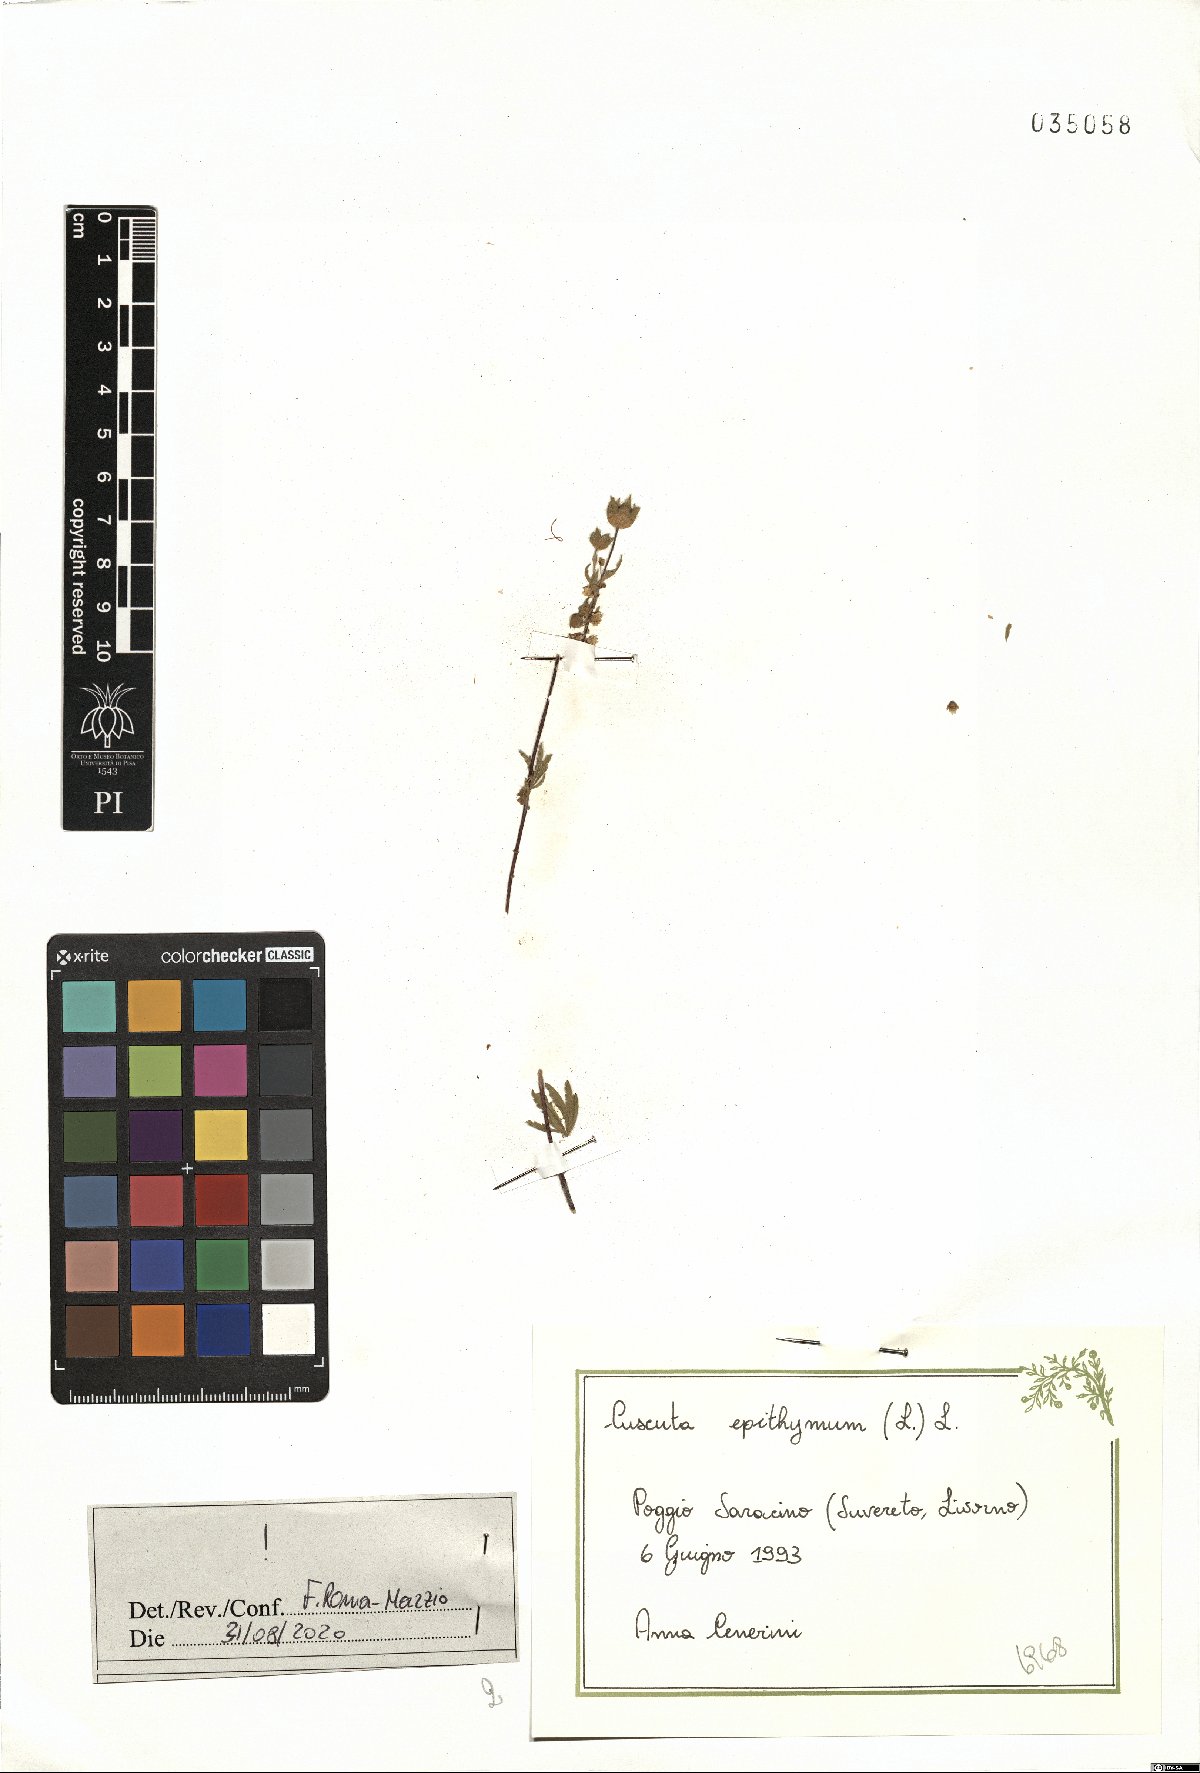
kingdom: Plantae
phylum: Tracheophyta
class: Magnoliopsida
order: Solanales
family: Convolvulaceae
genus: Cuscuta
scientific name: Cuscuta epithymum
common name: Clover dodder
